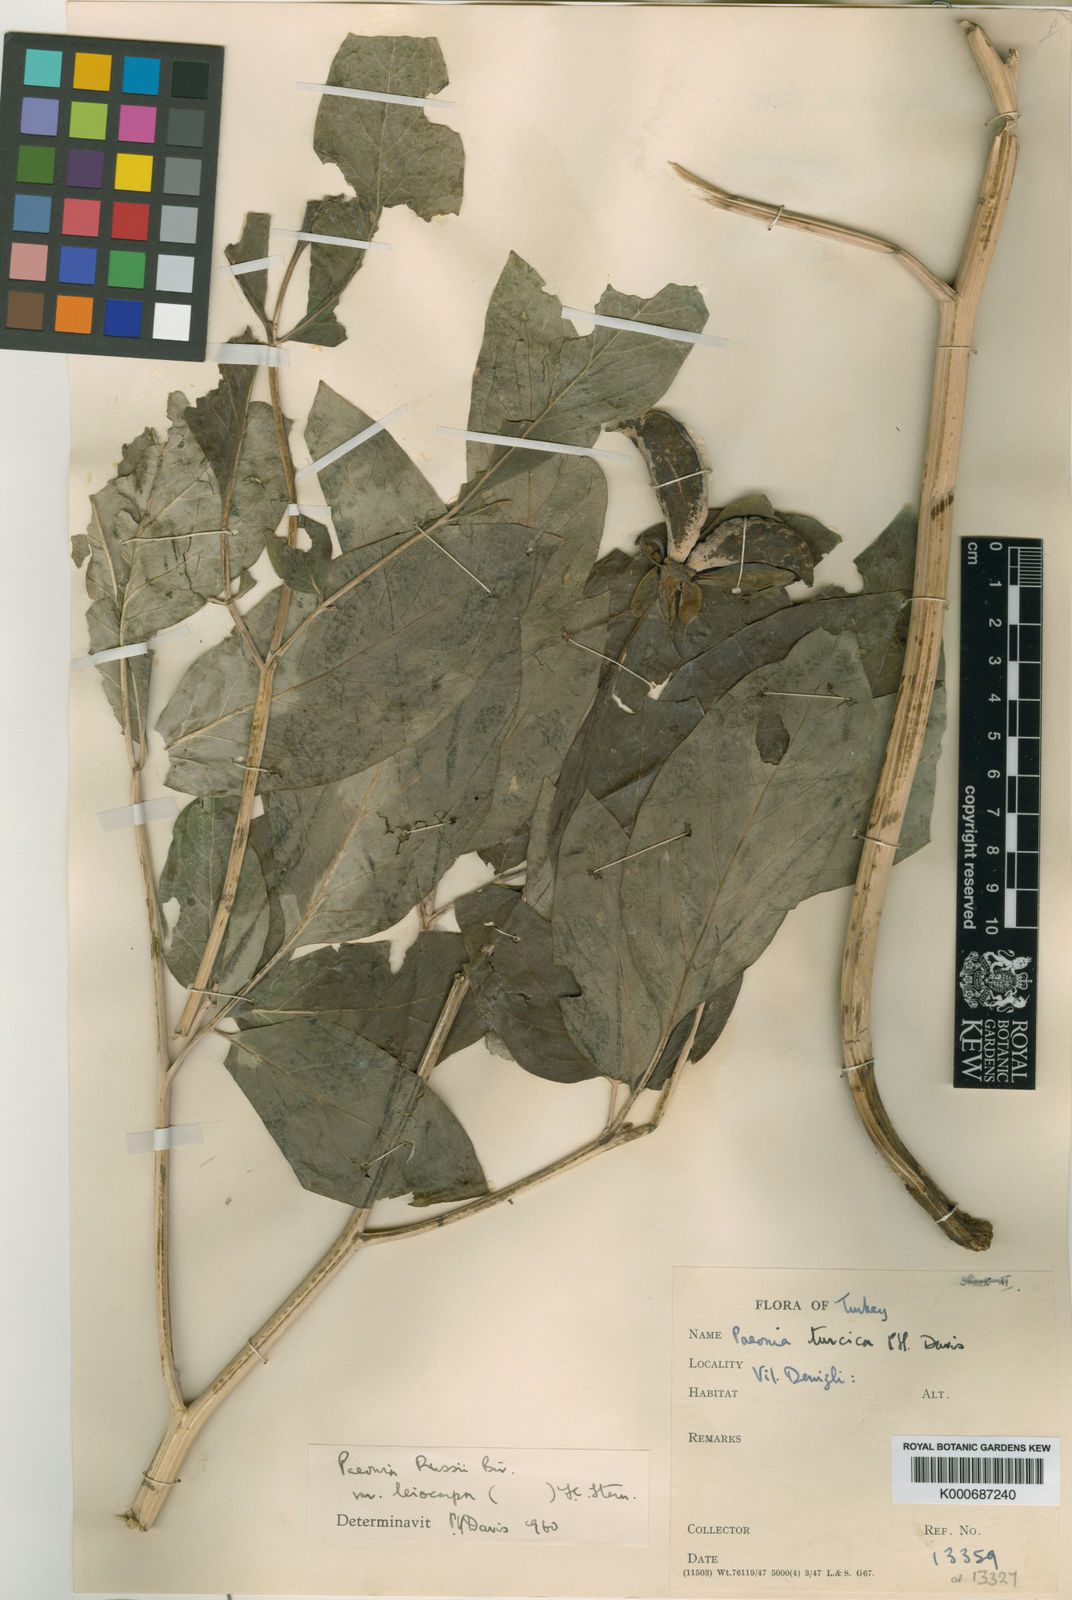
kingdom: Plantae
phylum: Tracheophyta
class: Magnoliopsida
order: Saxifragales
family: Paeoniaceae
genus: Paeonia
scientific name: Paeonia mascula
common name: Peony
